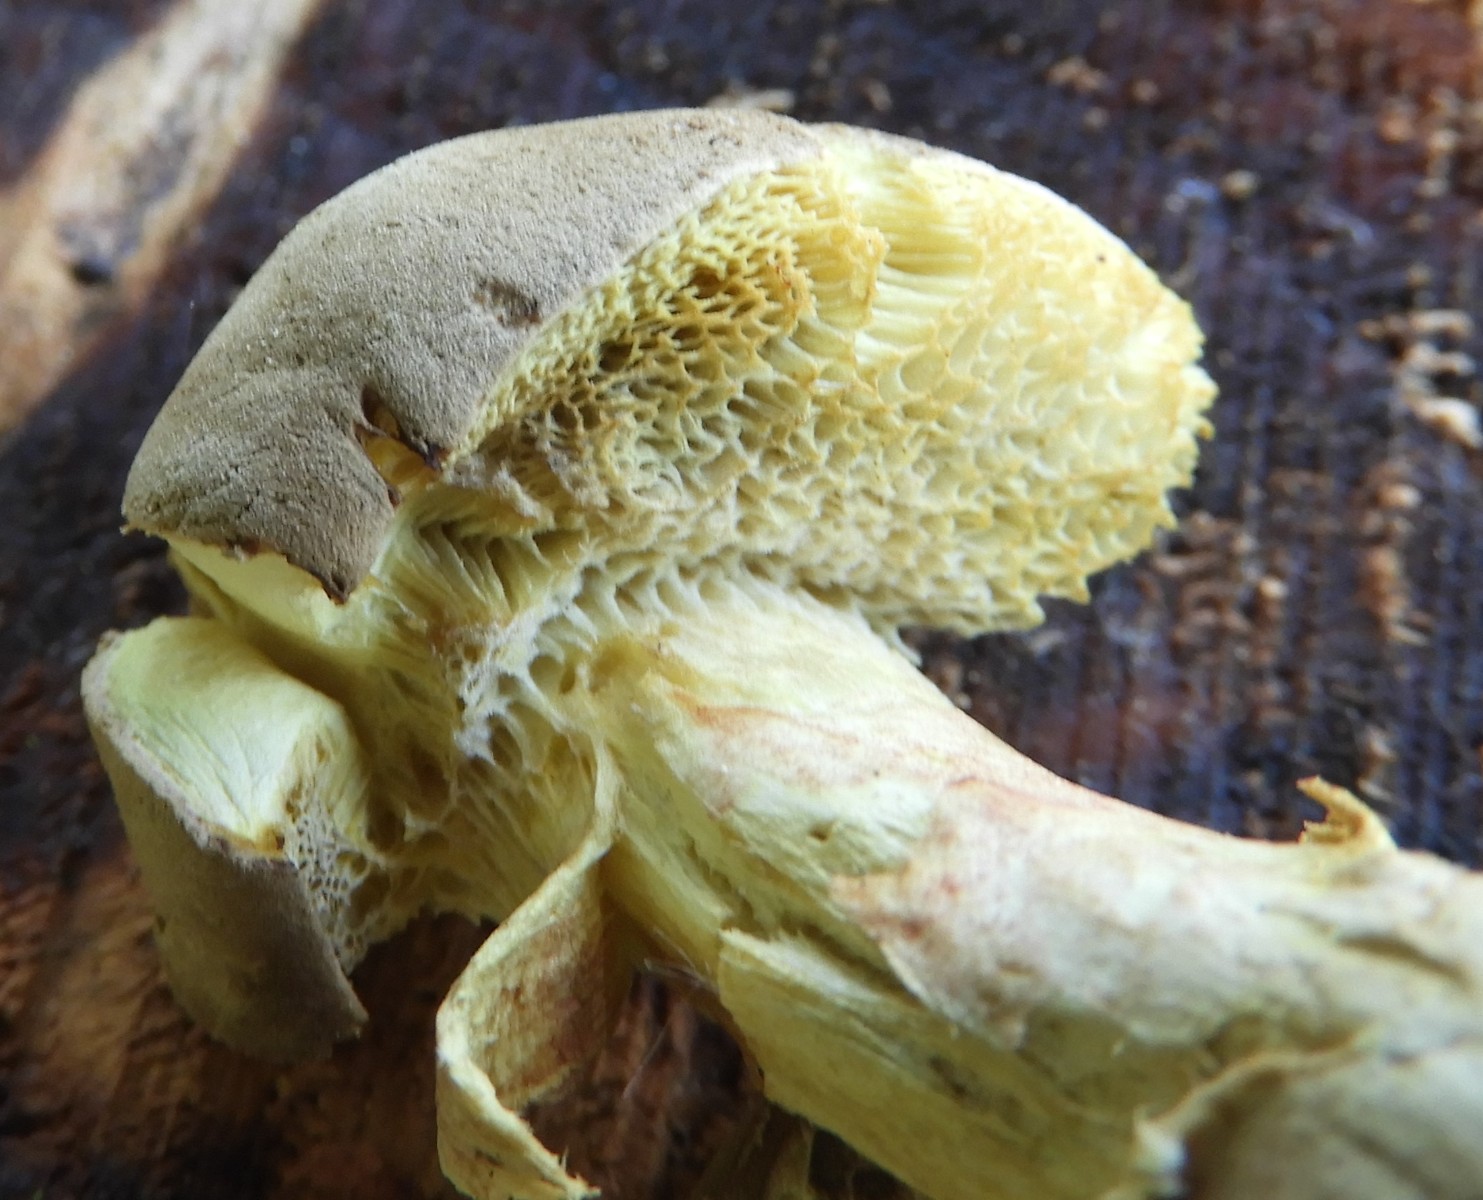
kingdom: Fungi
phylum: Basidiomycota
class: Agaricomycetes
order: Boletales
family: Boletaceae
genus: Xerocomellus
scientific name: Xerocomellus
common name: dværgrørhat
